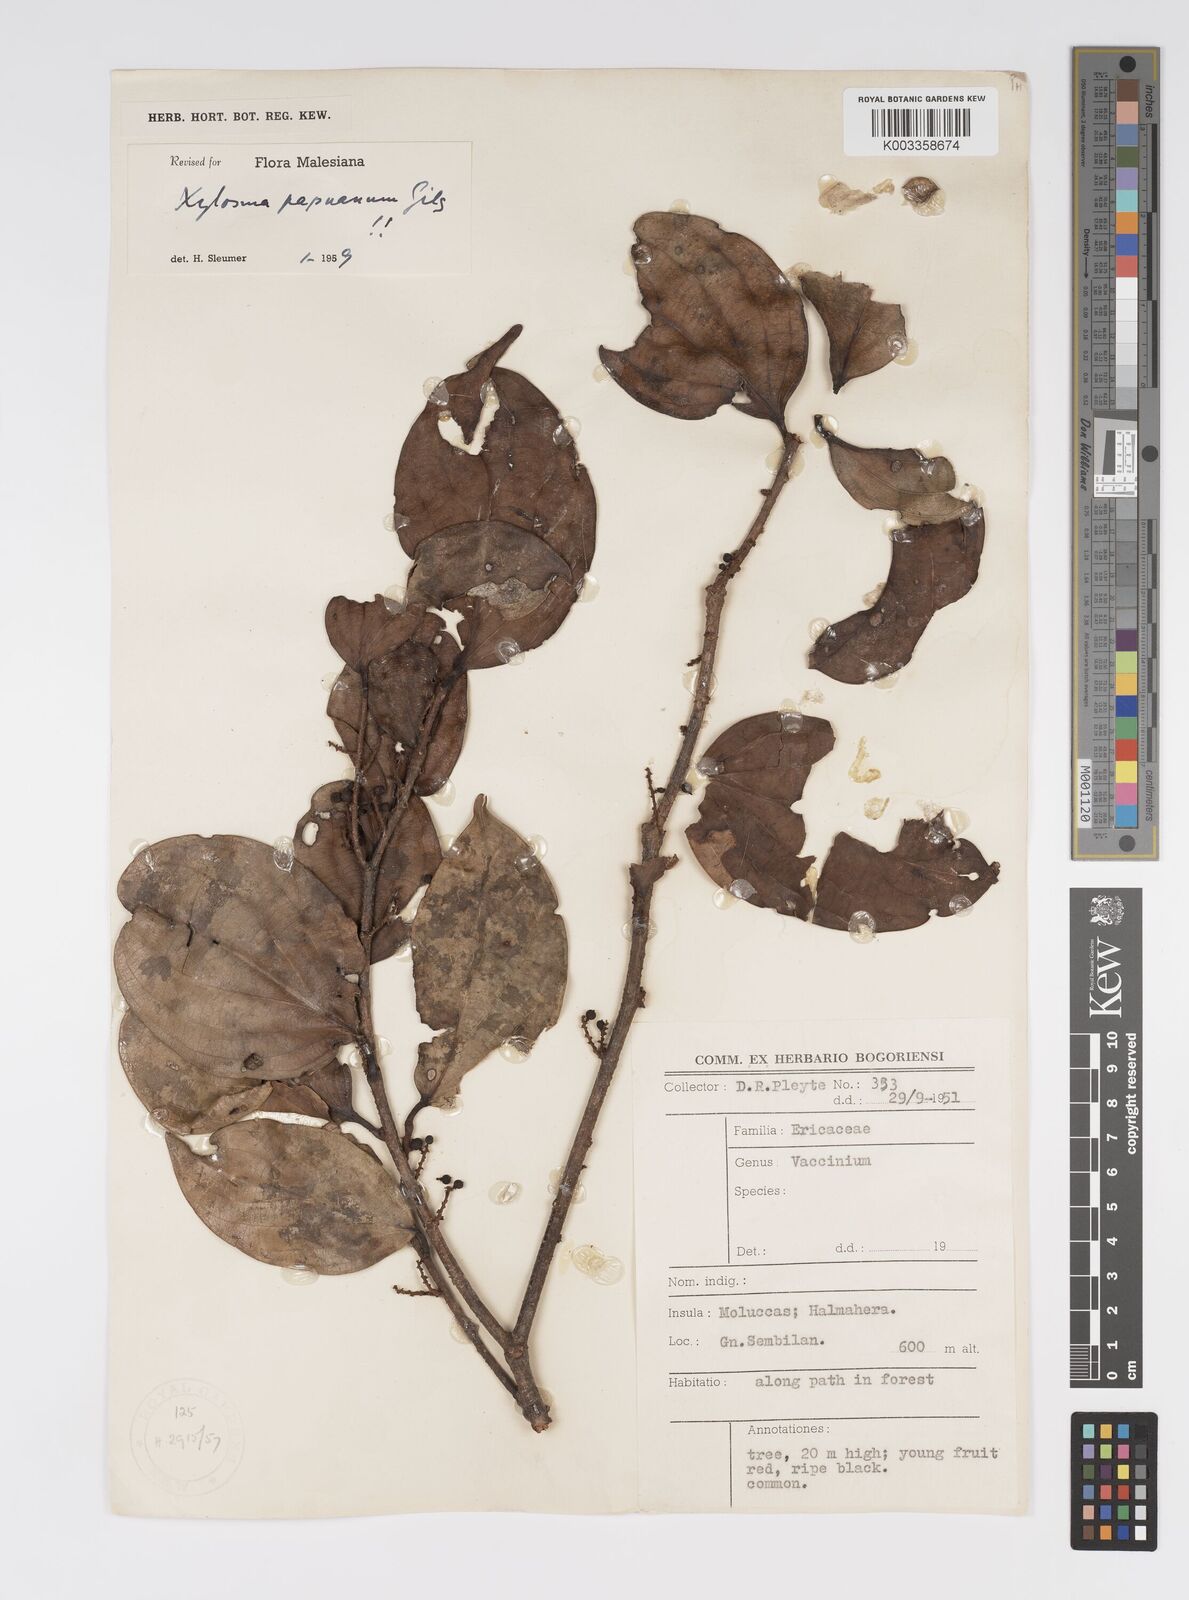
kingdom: Plantae
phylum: Tracheophyta
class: Magnoliopsida
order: Malpighiales
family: Salicaceae
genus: Xylosma
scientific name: Xylosma papuana
